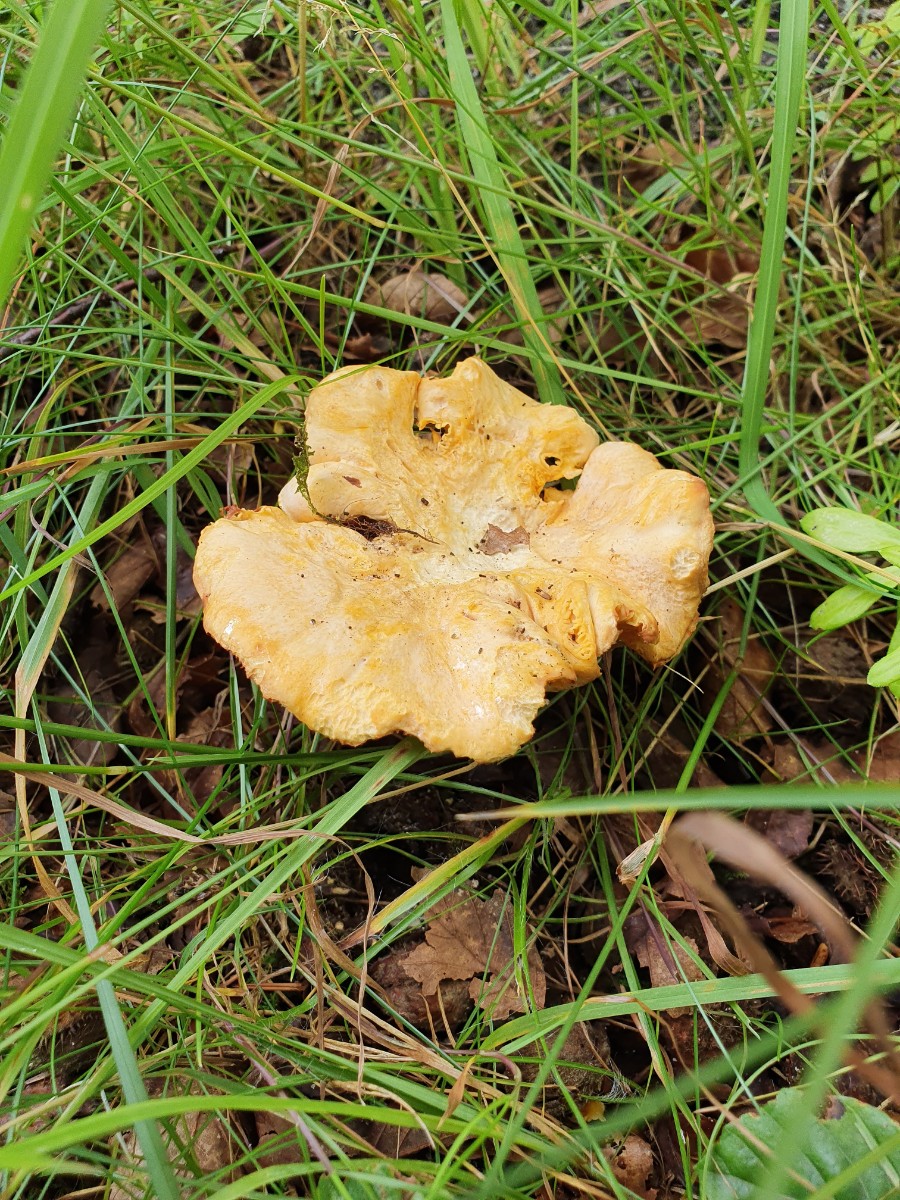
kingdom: Fungi
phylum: Basidiomycota
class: Agaricomycetes
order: Cantharellales
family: Hydnaceae
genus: Cantharellus
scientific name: Cantharellus pallens
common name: bleg kantarel
